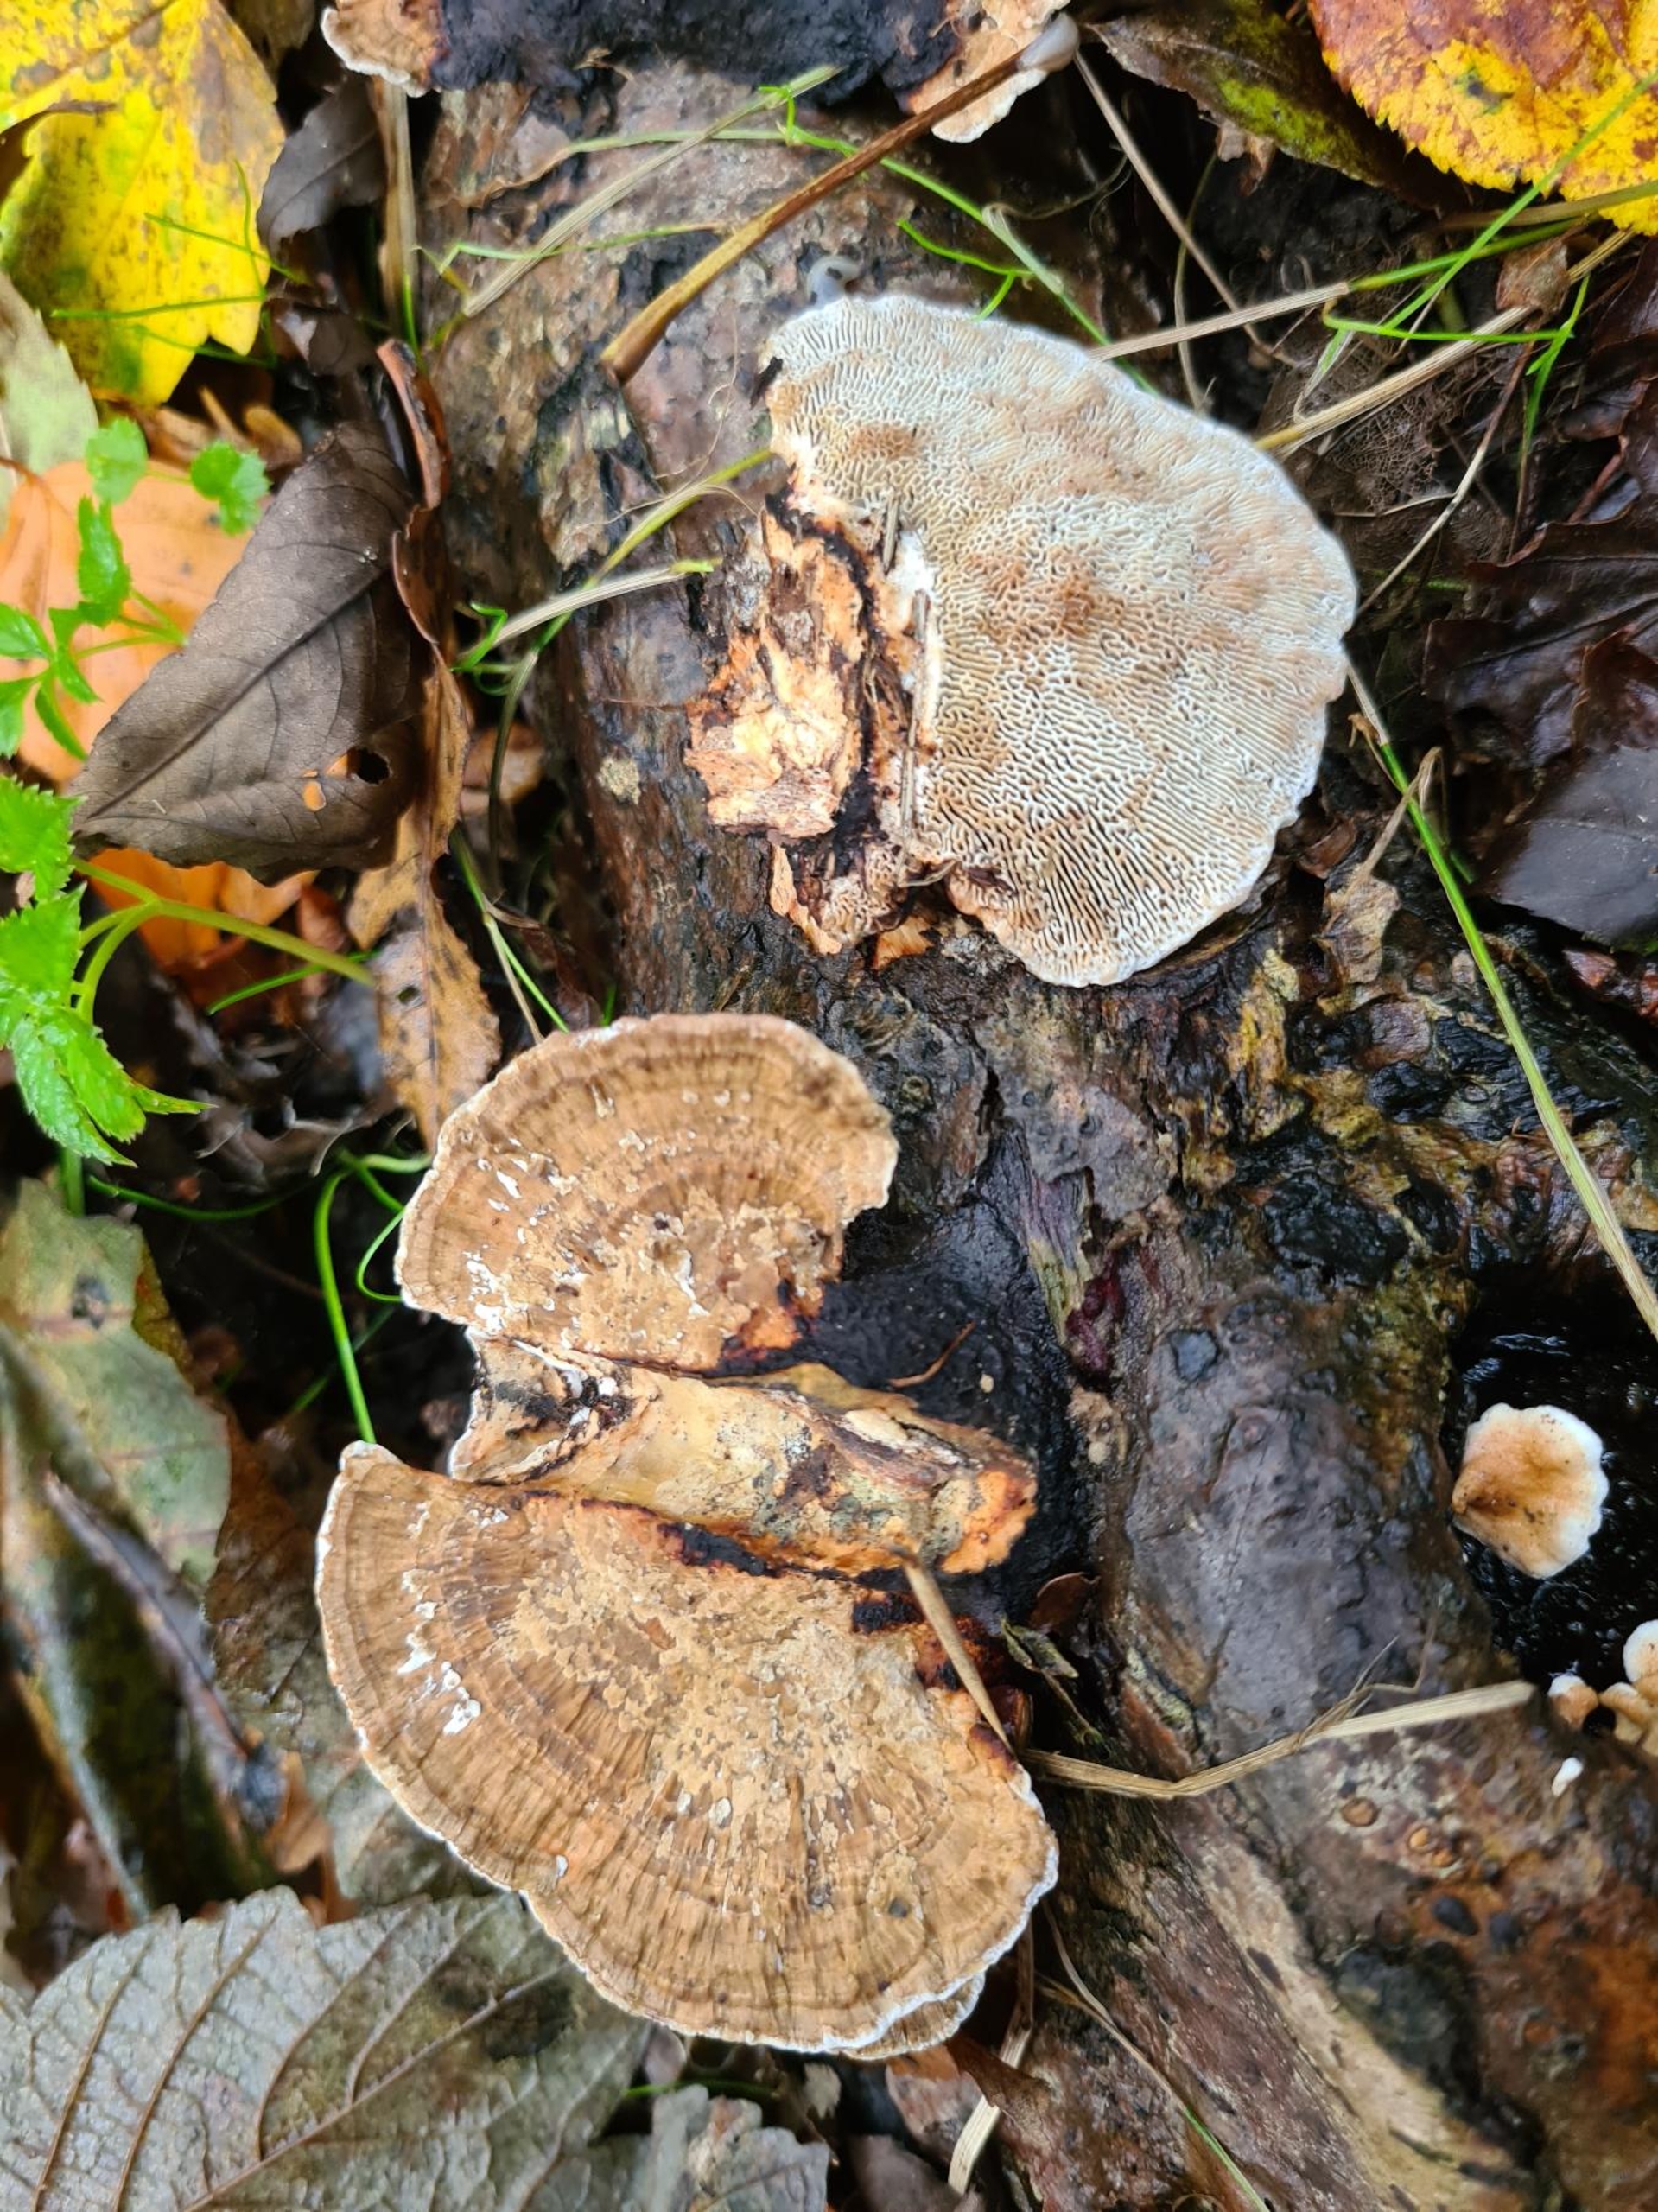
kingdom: Fungi
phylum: Basidiomycota
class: Agaricomycetes
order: Polyporales
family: Polyporaceae
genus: Daedaleopsis
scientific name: Daedaleopsis confragosa
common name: Rødmende læderporesvamp
